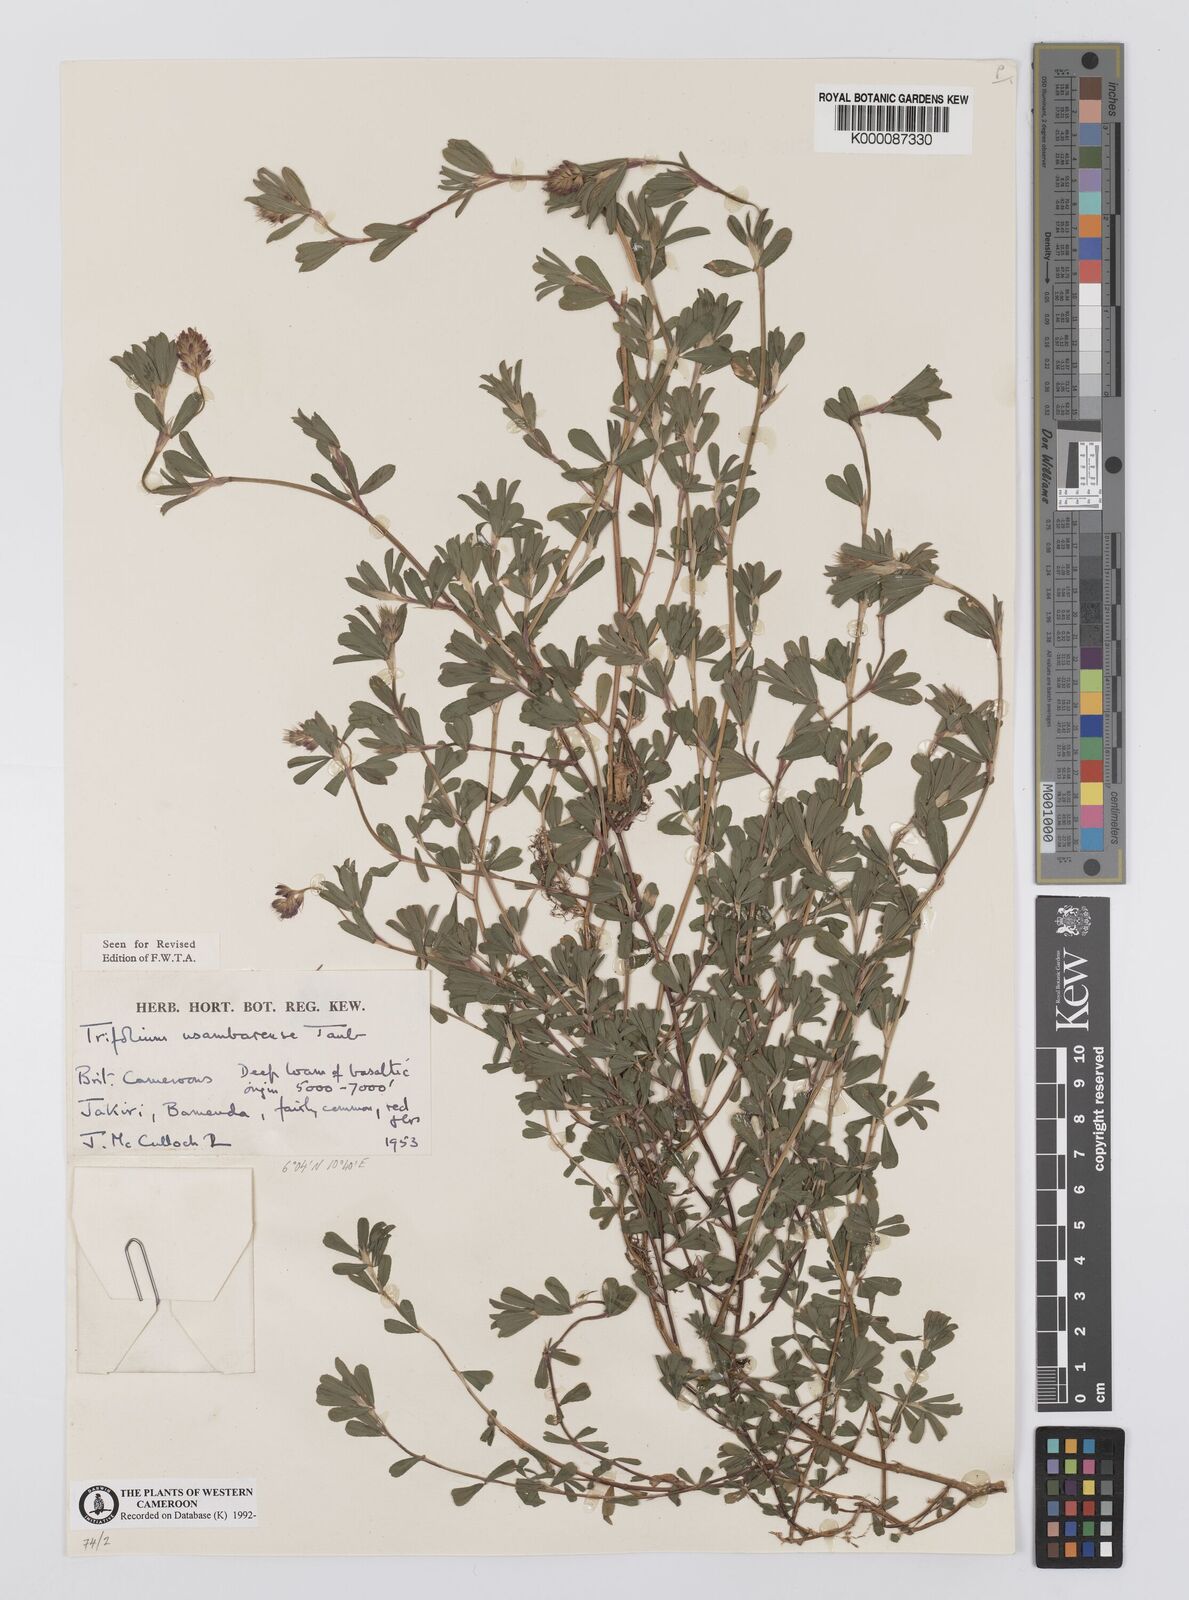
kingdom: Plantae
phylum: Tracheophyta
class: Magnoliopsida
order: Fabales
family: Fabaceae
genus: Trifolium
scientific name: Trifolium usambarense
